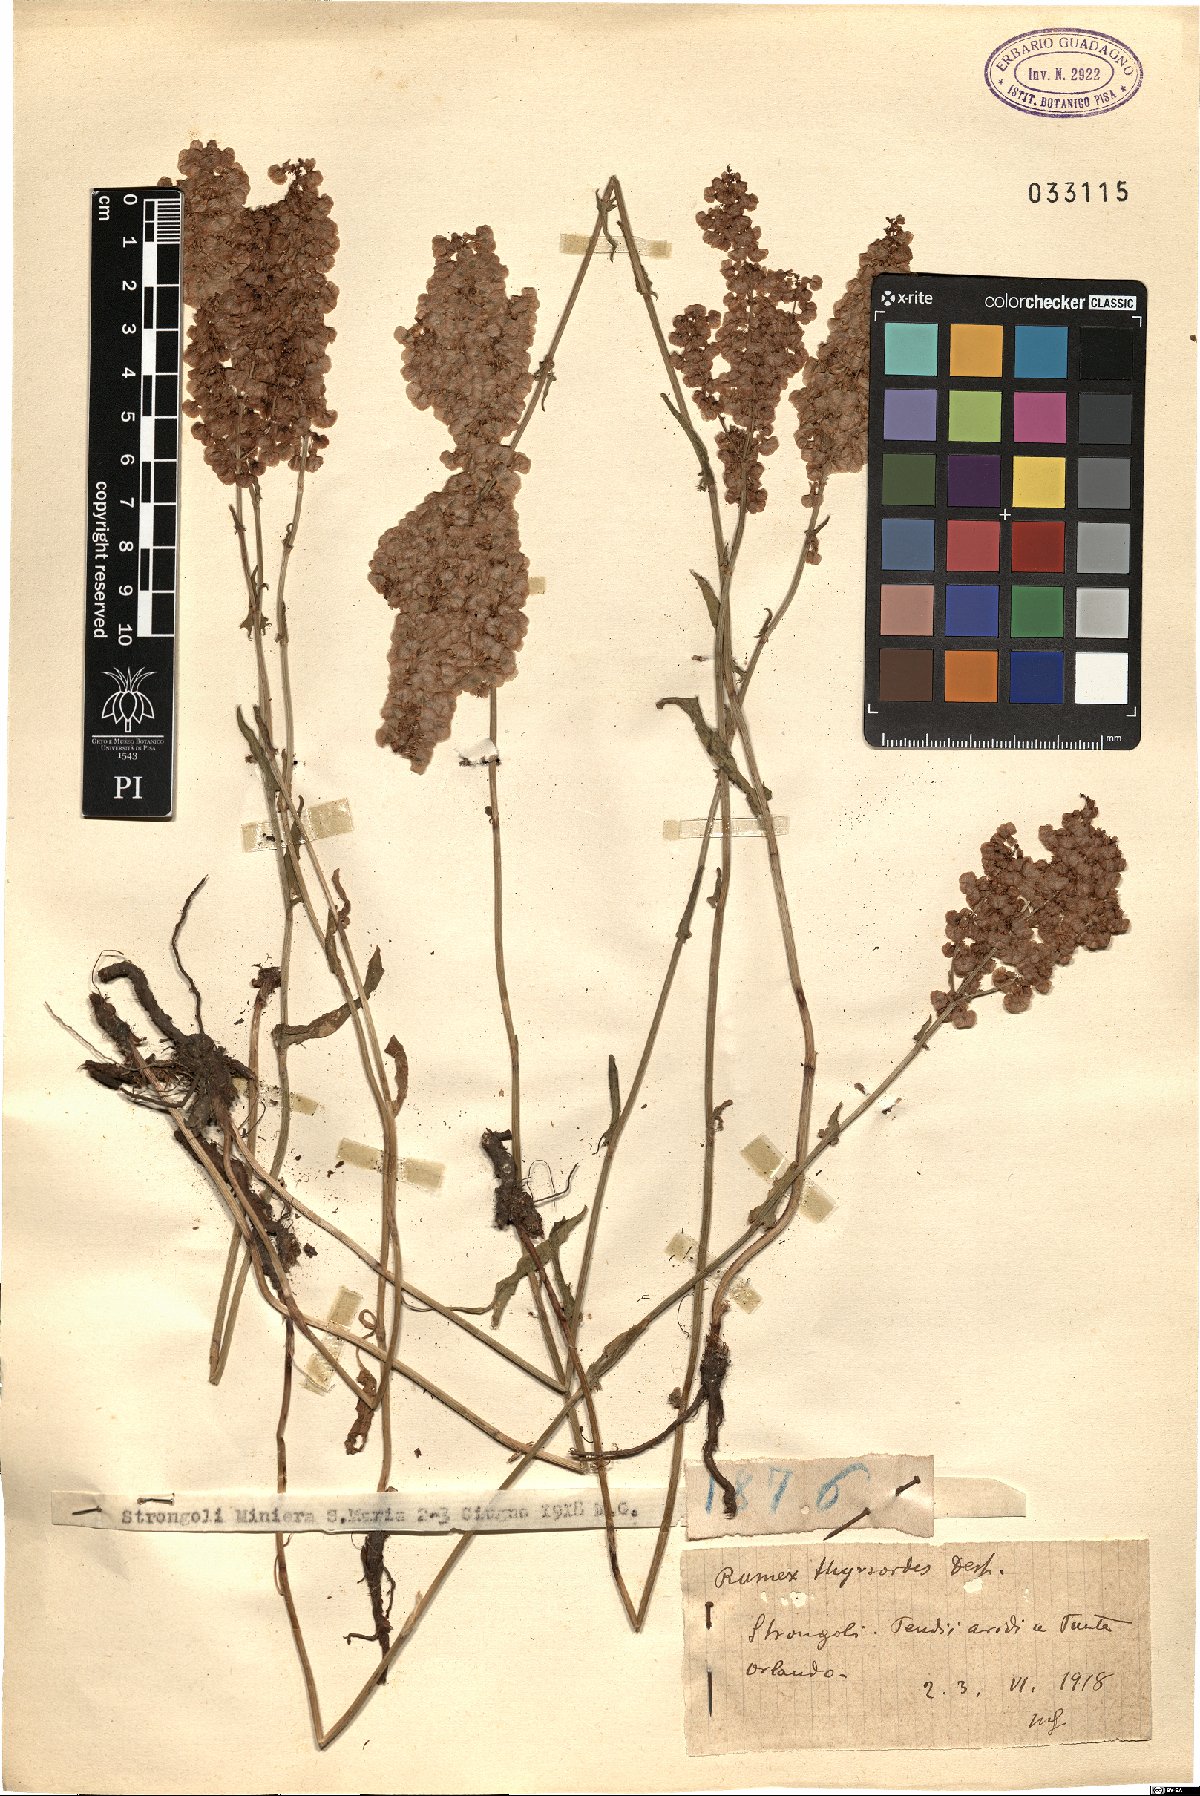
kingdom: Plantae
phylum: Tracheophyta
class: Magnoliopsida
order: Caryophyllales
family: Polygonaceae
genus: Rumex
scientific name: Rumex thyrsoides
